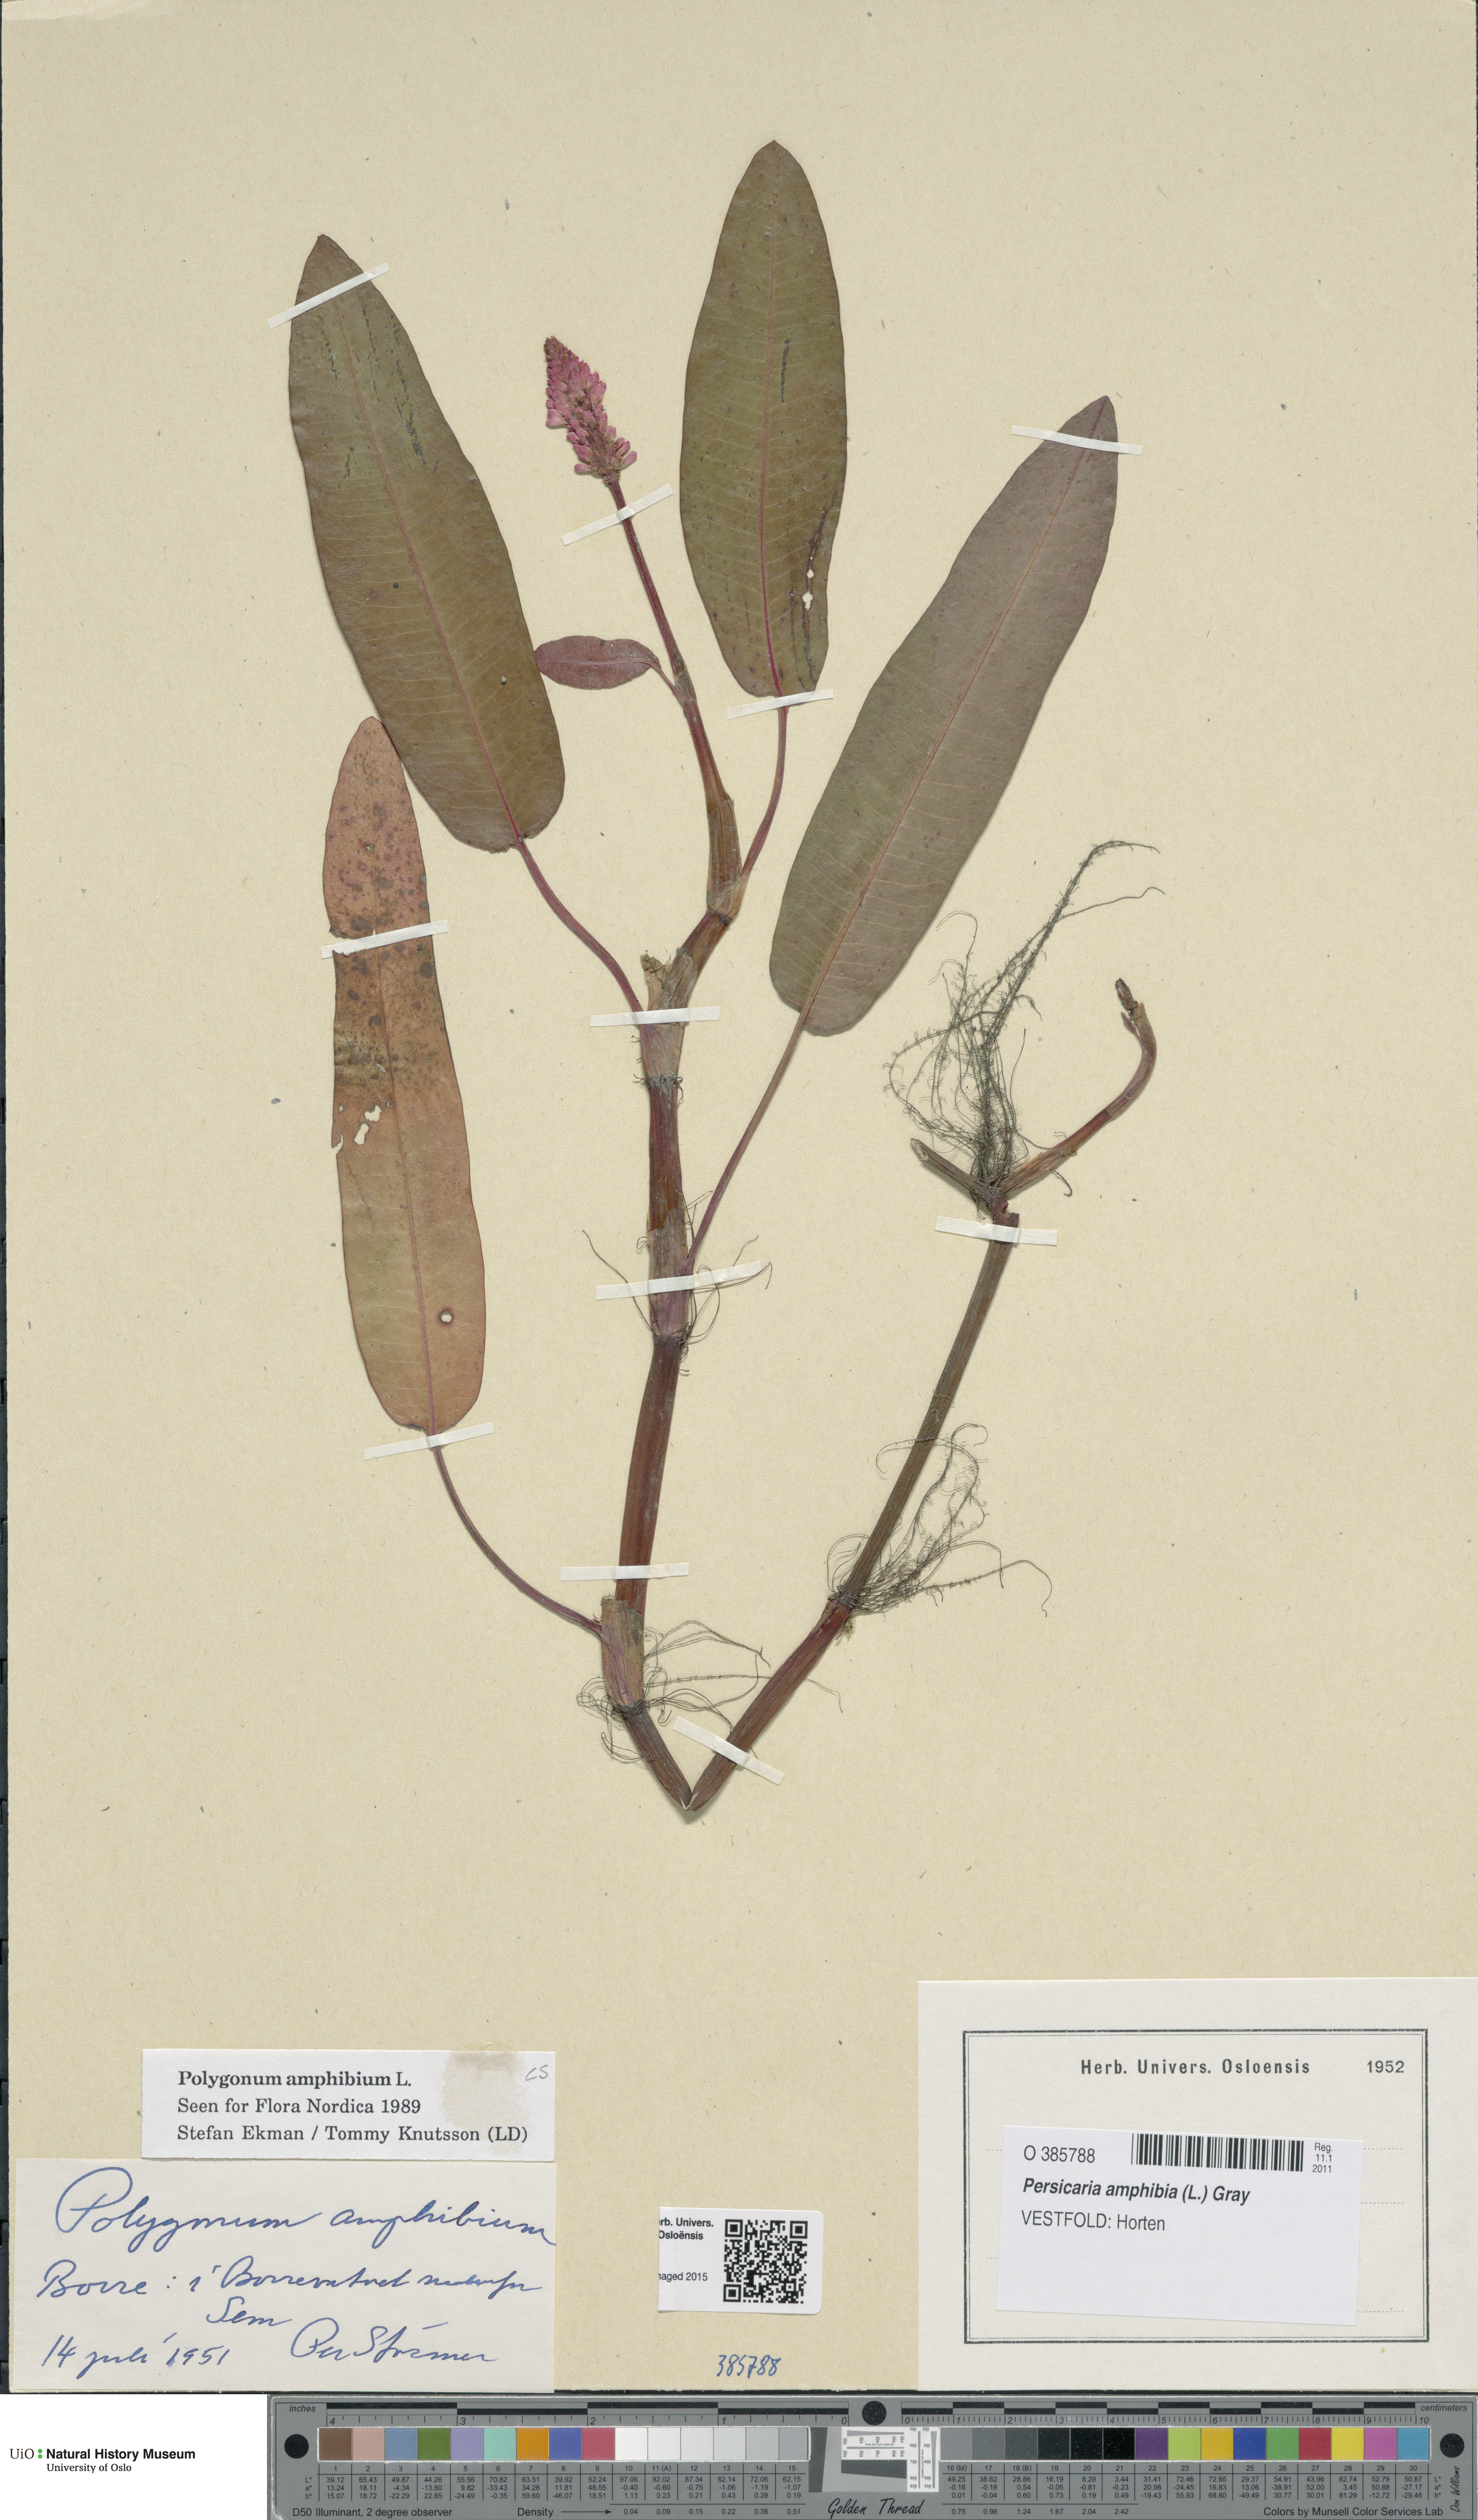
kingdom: Plantae
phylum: Tracheophyta
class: Magnoliopsida
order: Caryophyllales
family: Polygonaceae
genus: Persicaria
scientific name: Persicaria amphibia
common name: Amphibious bistort
